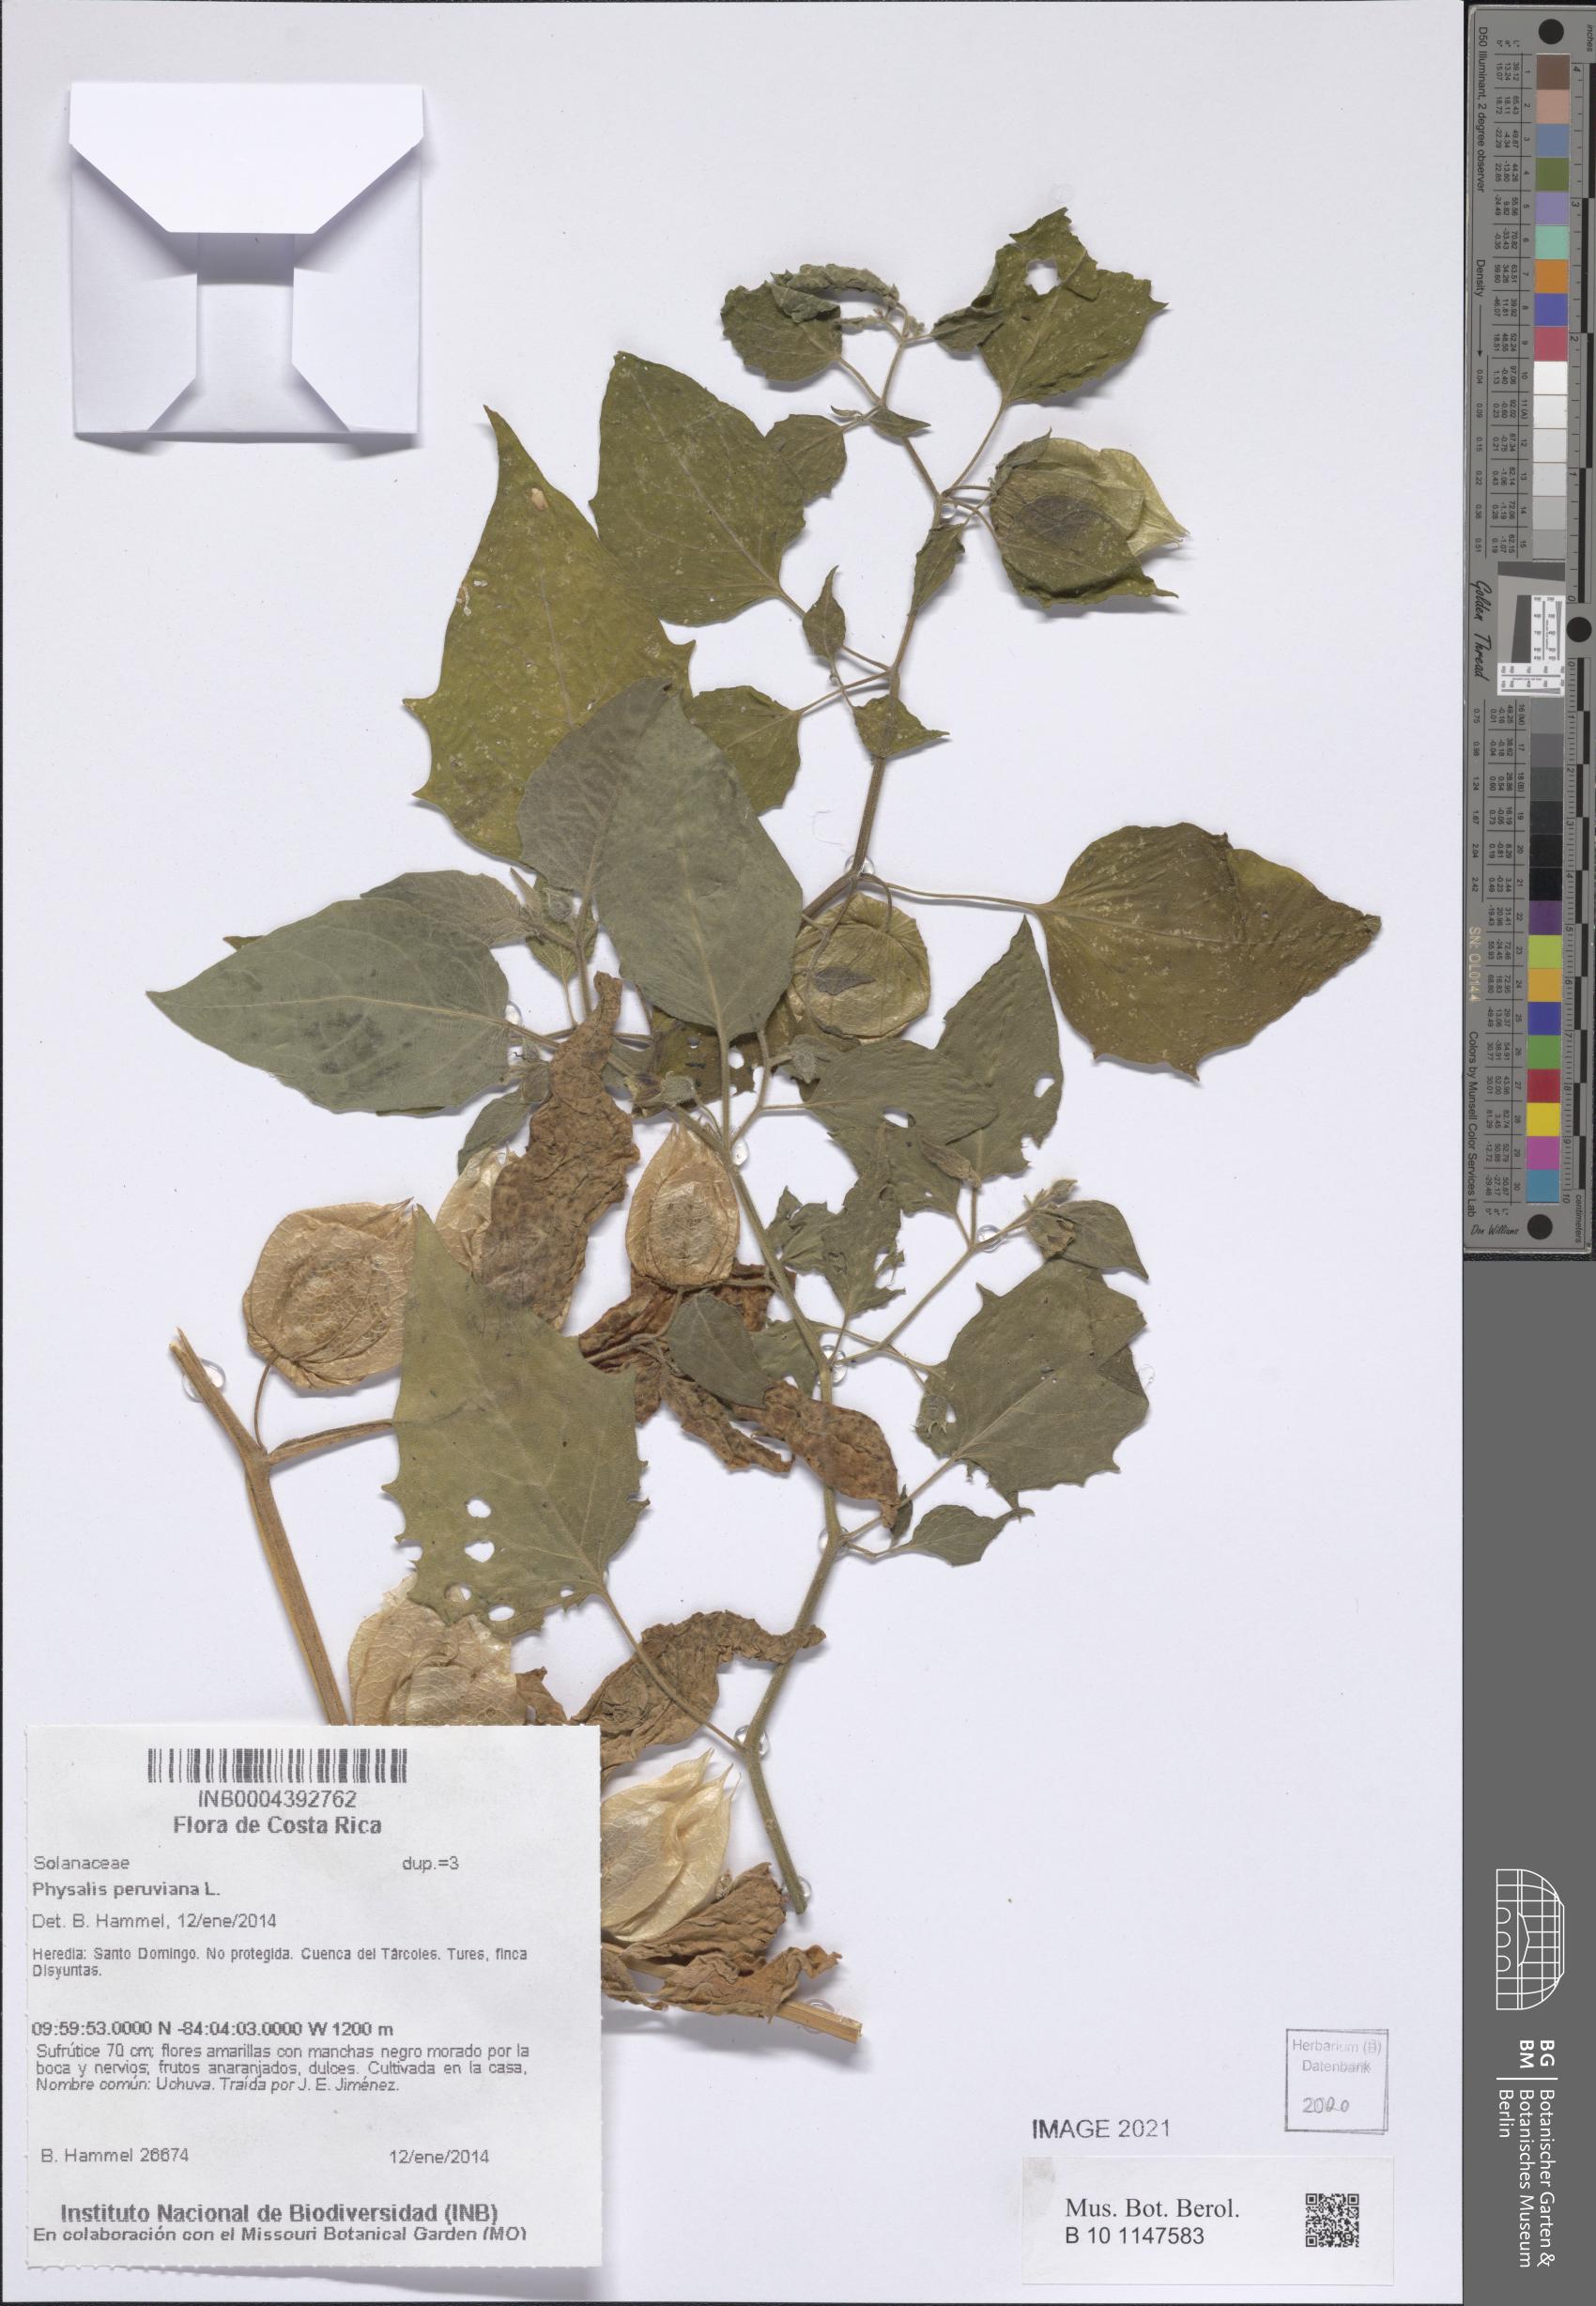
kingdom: Plantae
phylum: Tracheophyta
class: Magnoliopsida
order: Solanales
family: Solanaceae
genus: Physalis
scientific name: Physalis peruviana
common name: Cape-gooseberry
